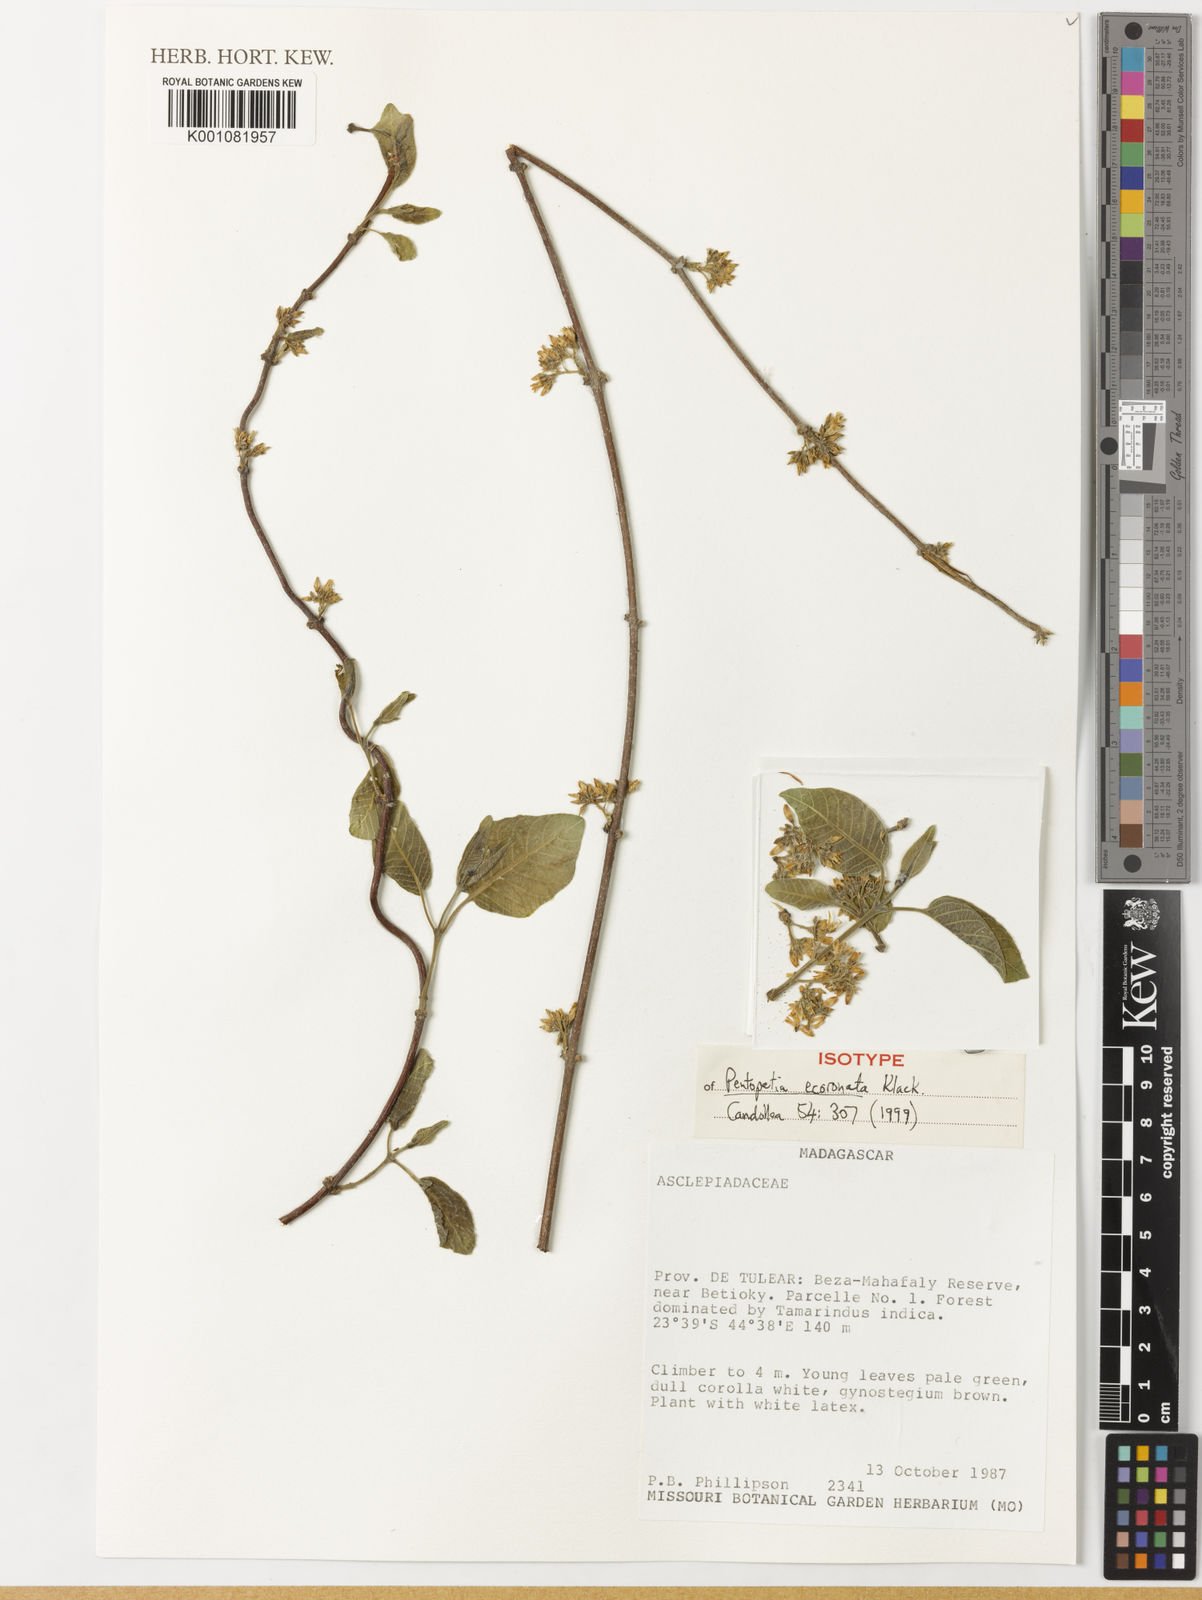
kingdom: Plantae
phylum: Tracheophyta
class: Magnoliopsida
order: Gentianales
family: Apocynaceae
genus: Pentopetia
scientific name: Pentopetia ecoronata
